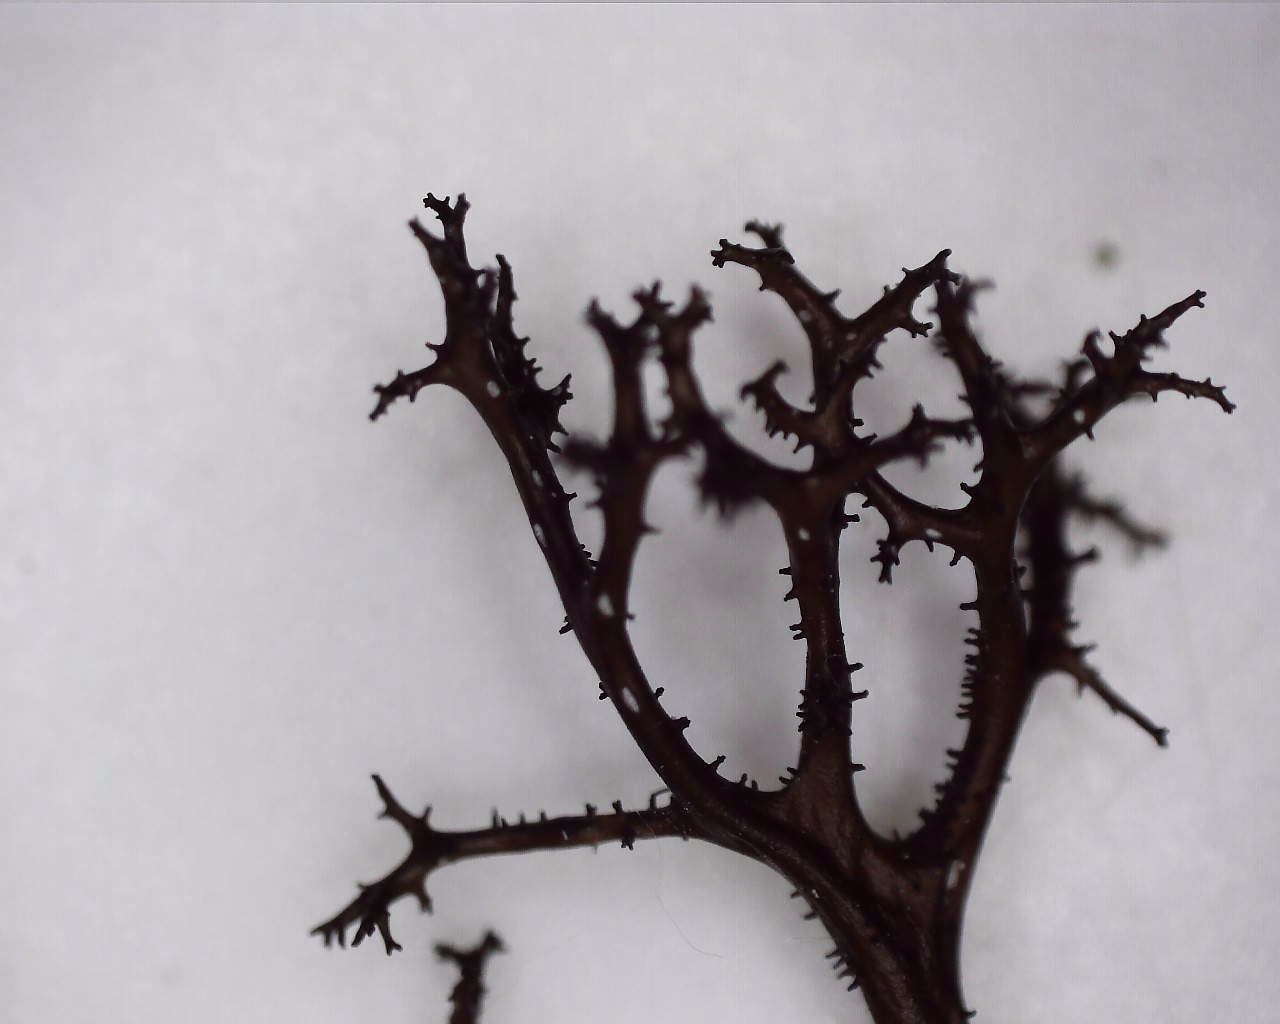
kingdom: Fungi
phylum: Ascomycota
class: Lecanoromycetes
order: Lecanorales
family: Parmeliaceae
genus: Cetraria
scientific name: Cetraria aculeata
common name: grubet tjørnelav
